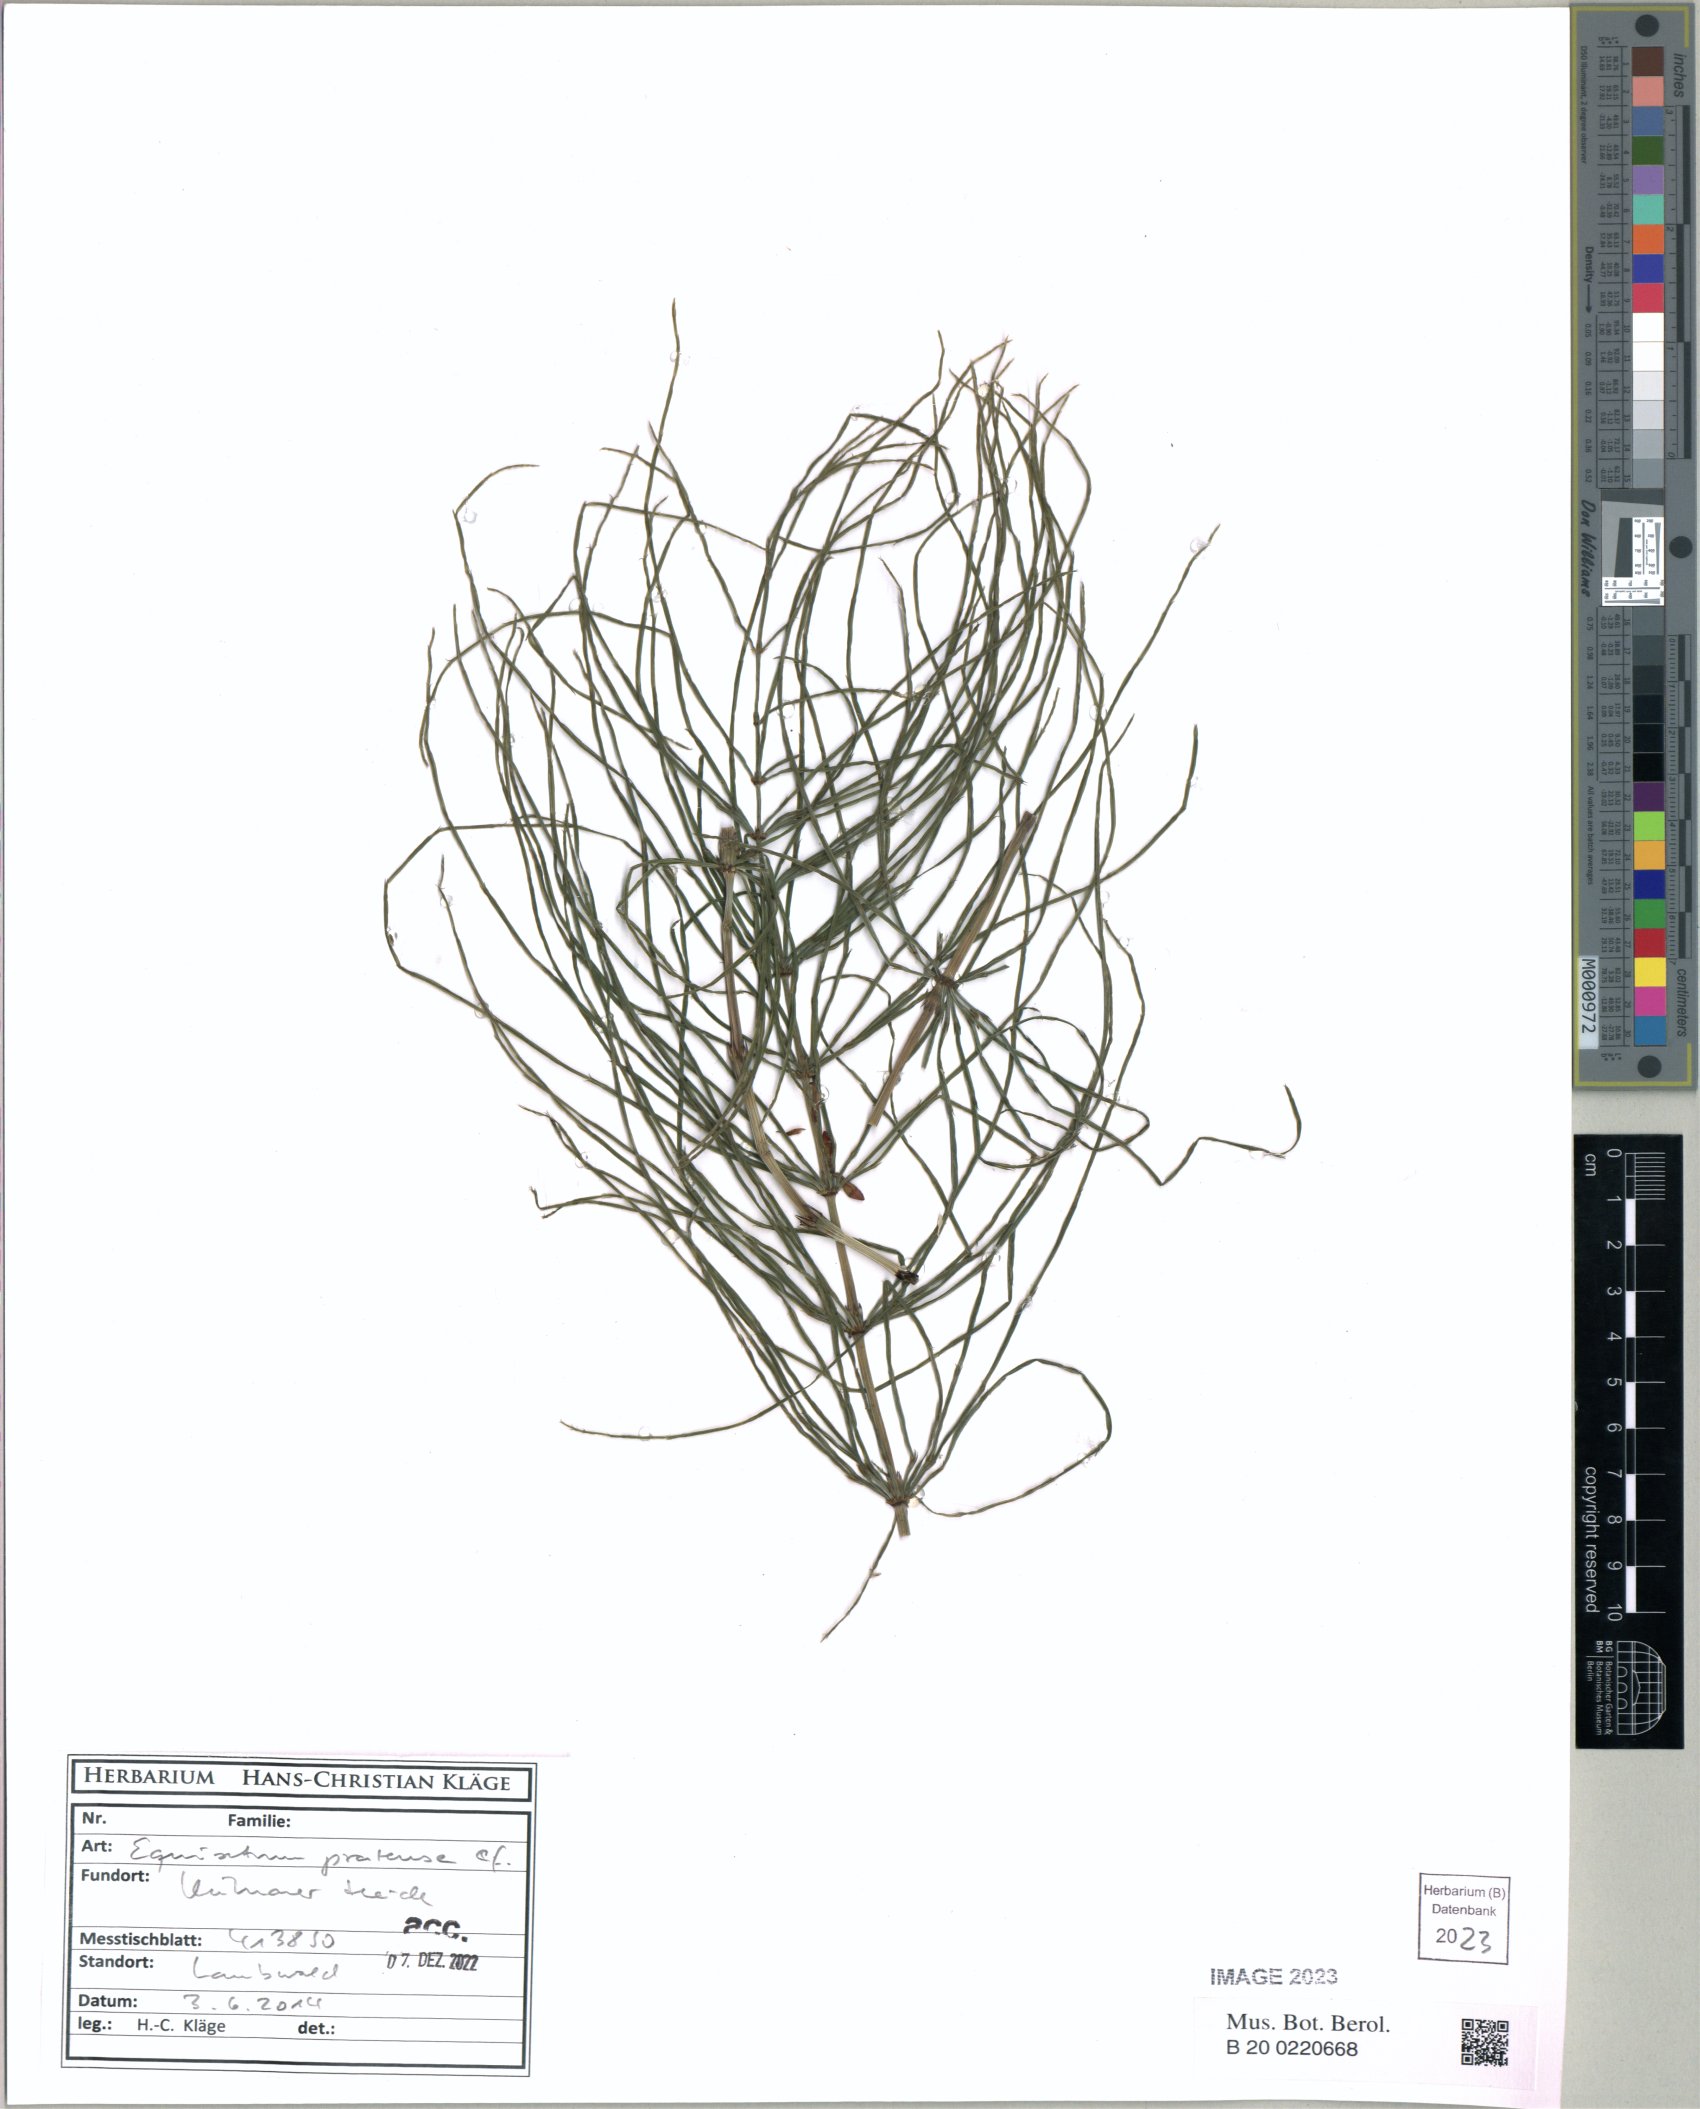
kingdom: Plantae
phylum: Tracheophyta
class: Polypodiopsida
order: Equisetales
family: Equisetaceae
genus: Equisetum
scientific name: Equisetum pratense
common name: Meadow horsetail
